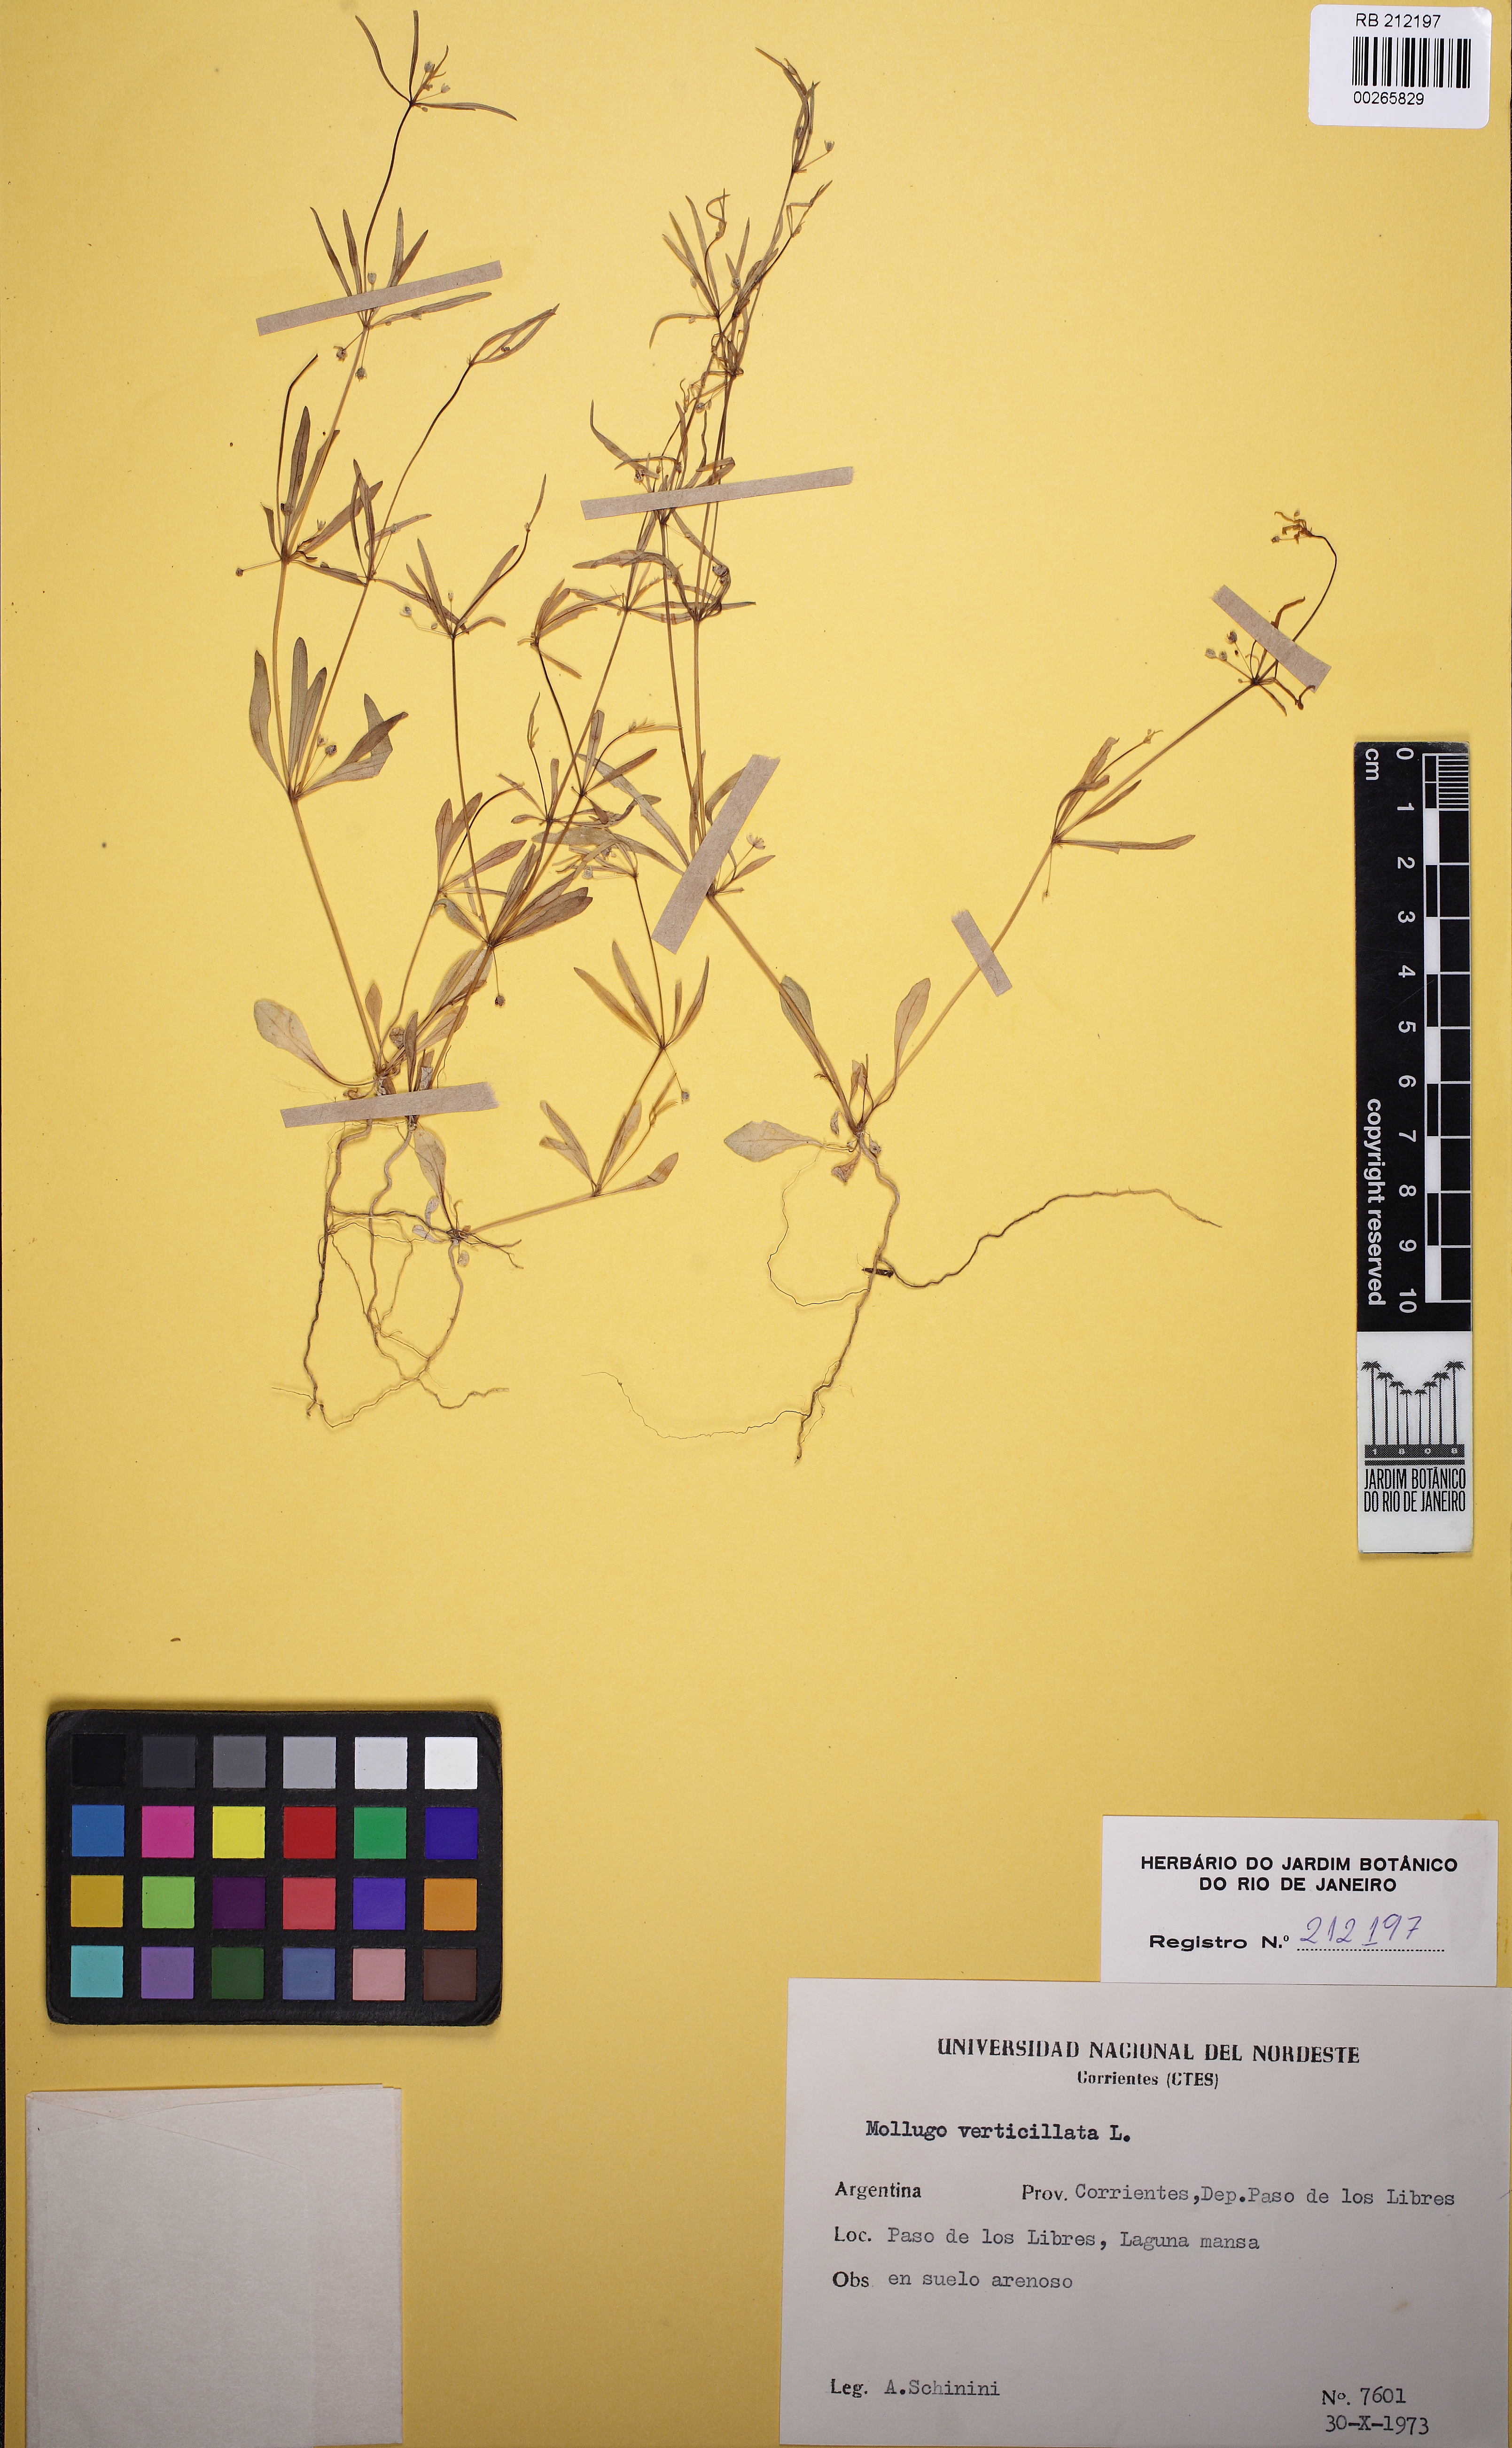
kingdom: Plantae
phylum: Tracheophyta
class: Magnoliopsida
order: Caryophyllales
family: Molluginaceae
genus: Mollugo
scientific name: Mollugo verticillata
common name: Green carpetweed
